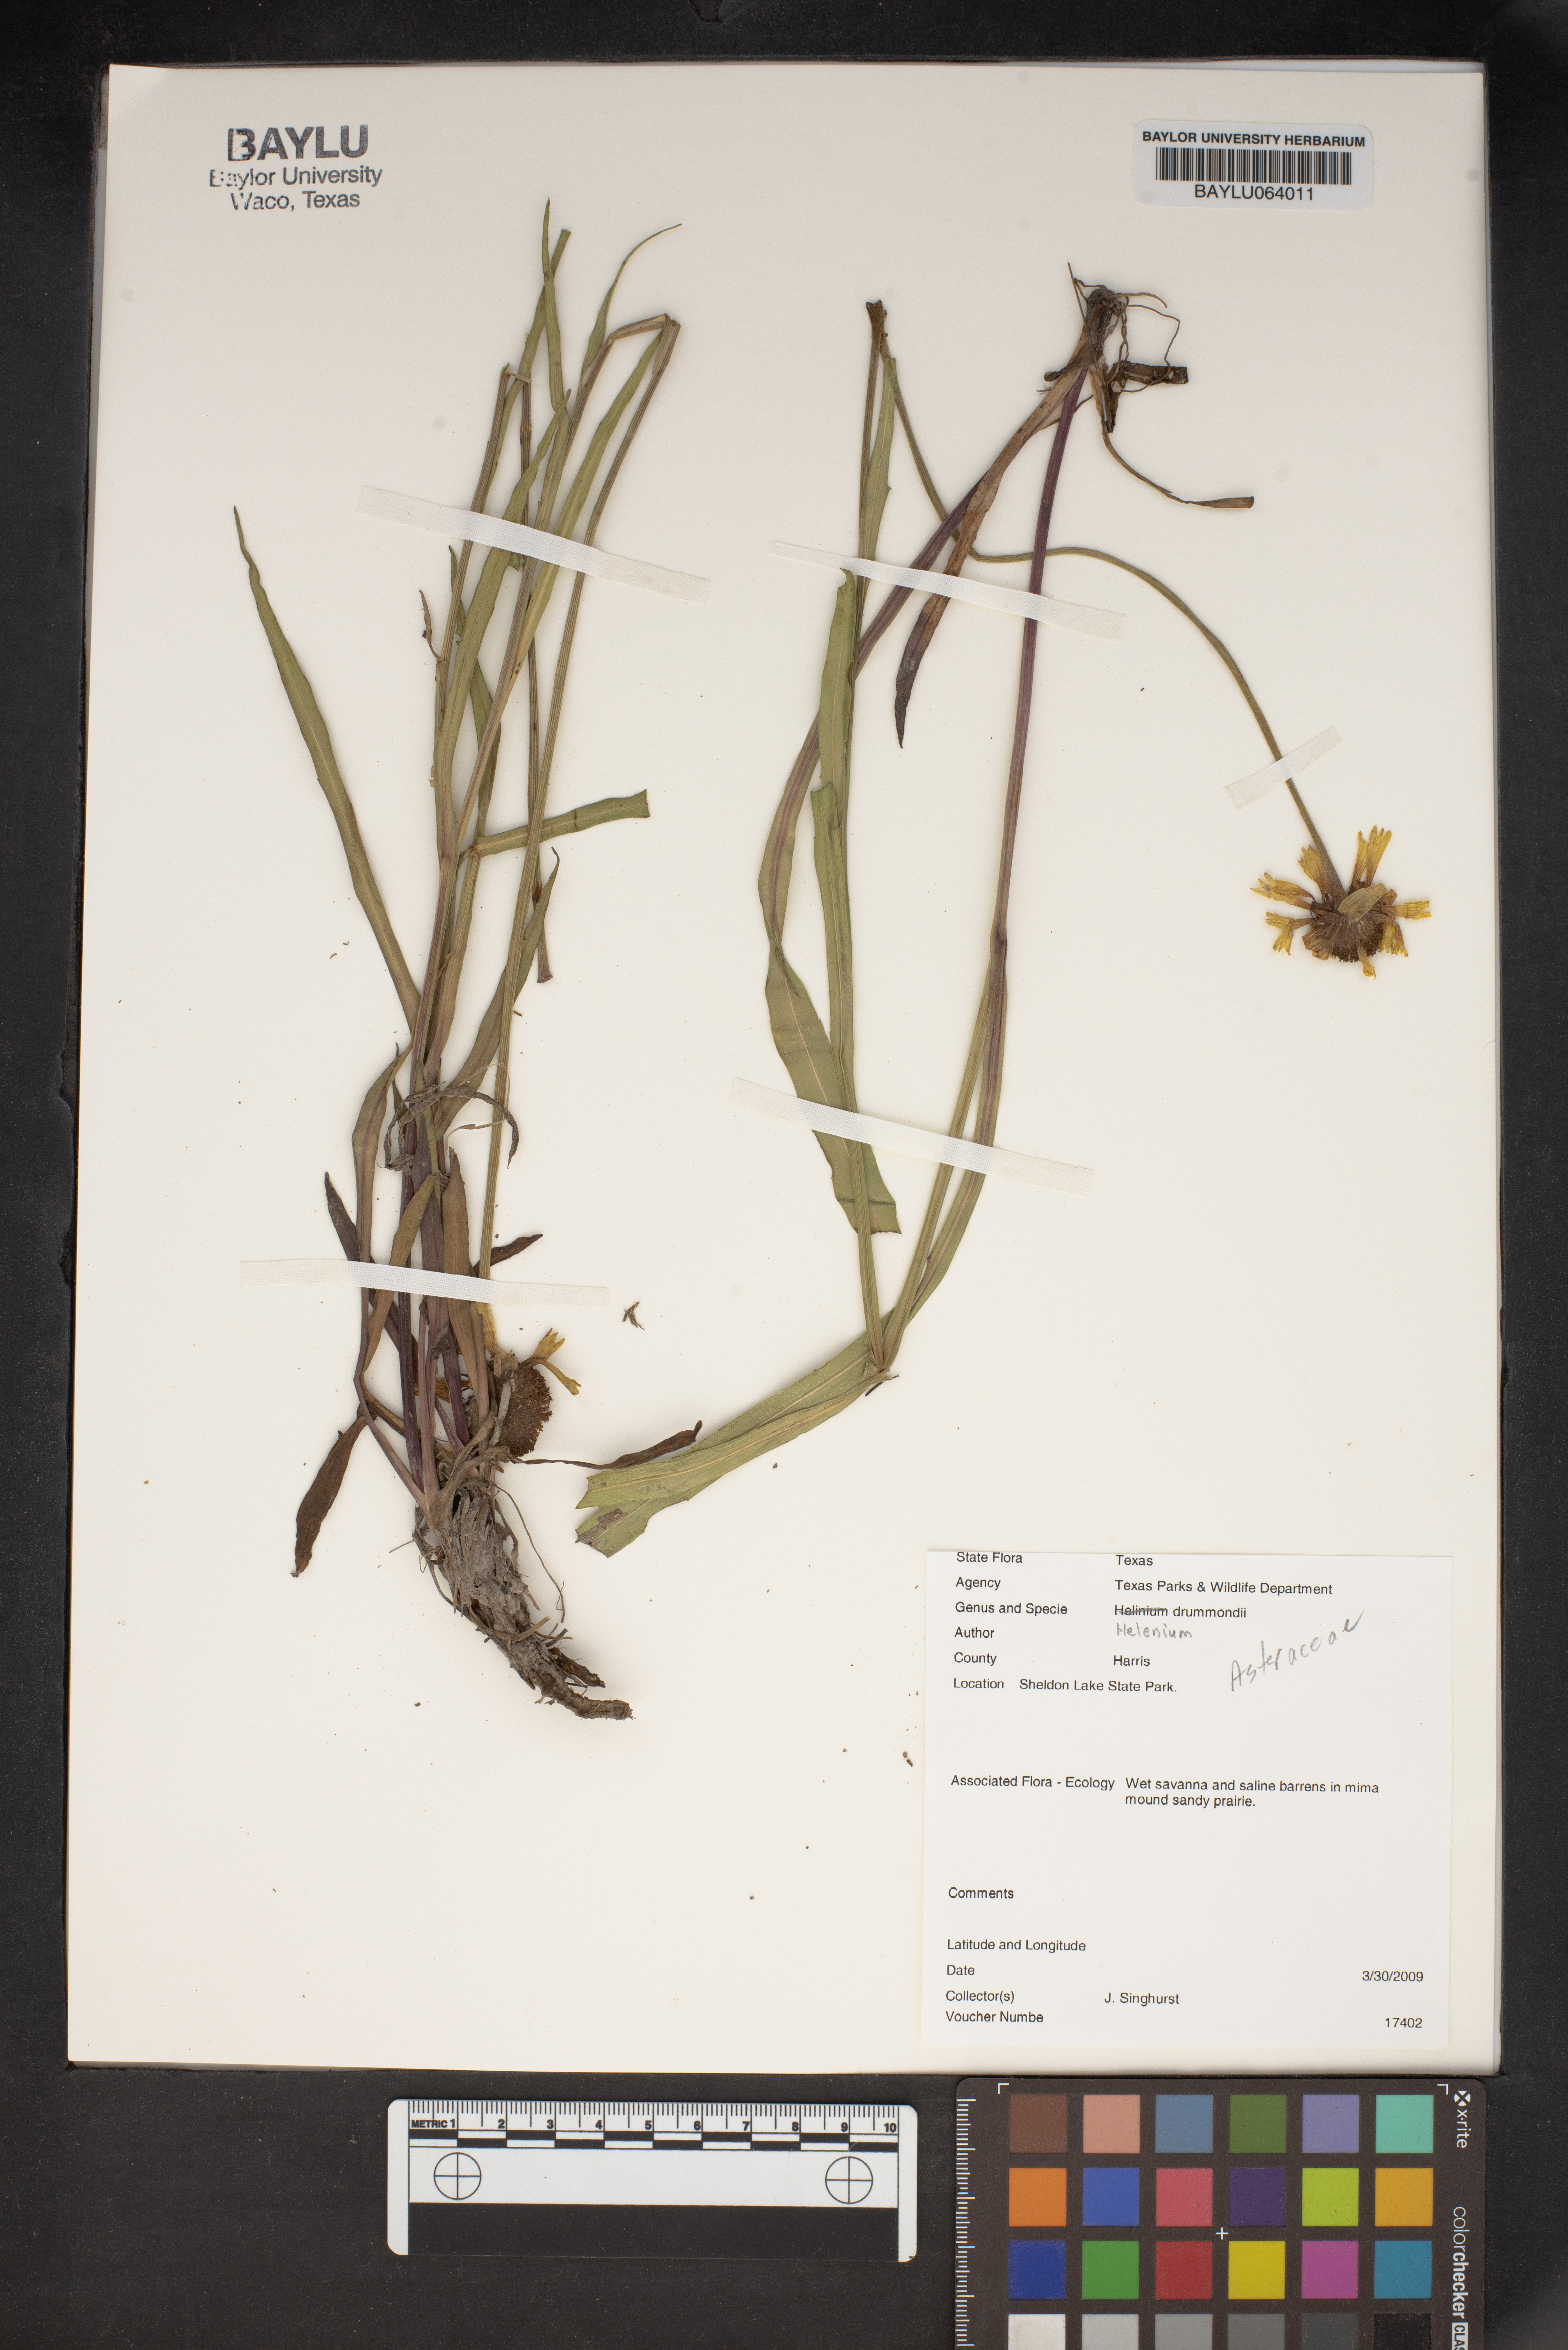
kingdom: Plantae
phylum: Tracheophyta
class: Magnoliopsida
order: Asterales
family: Asteraceae
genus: Helenium
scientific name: Helenium drummondii
